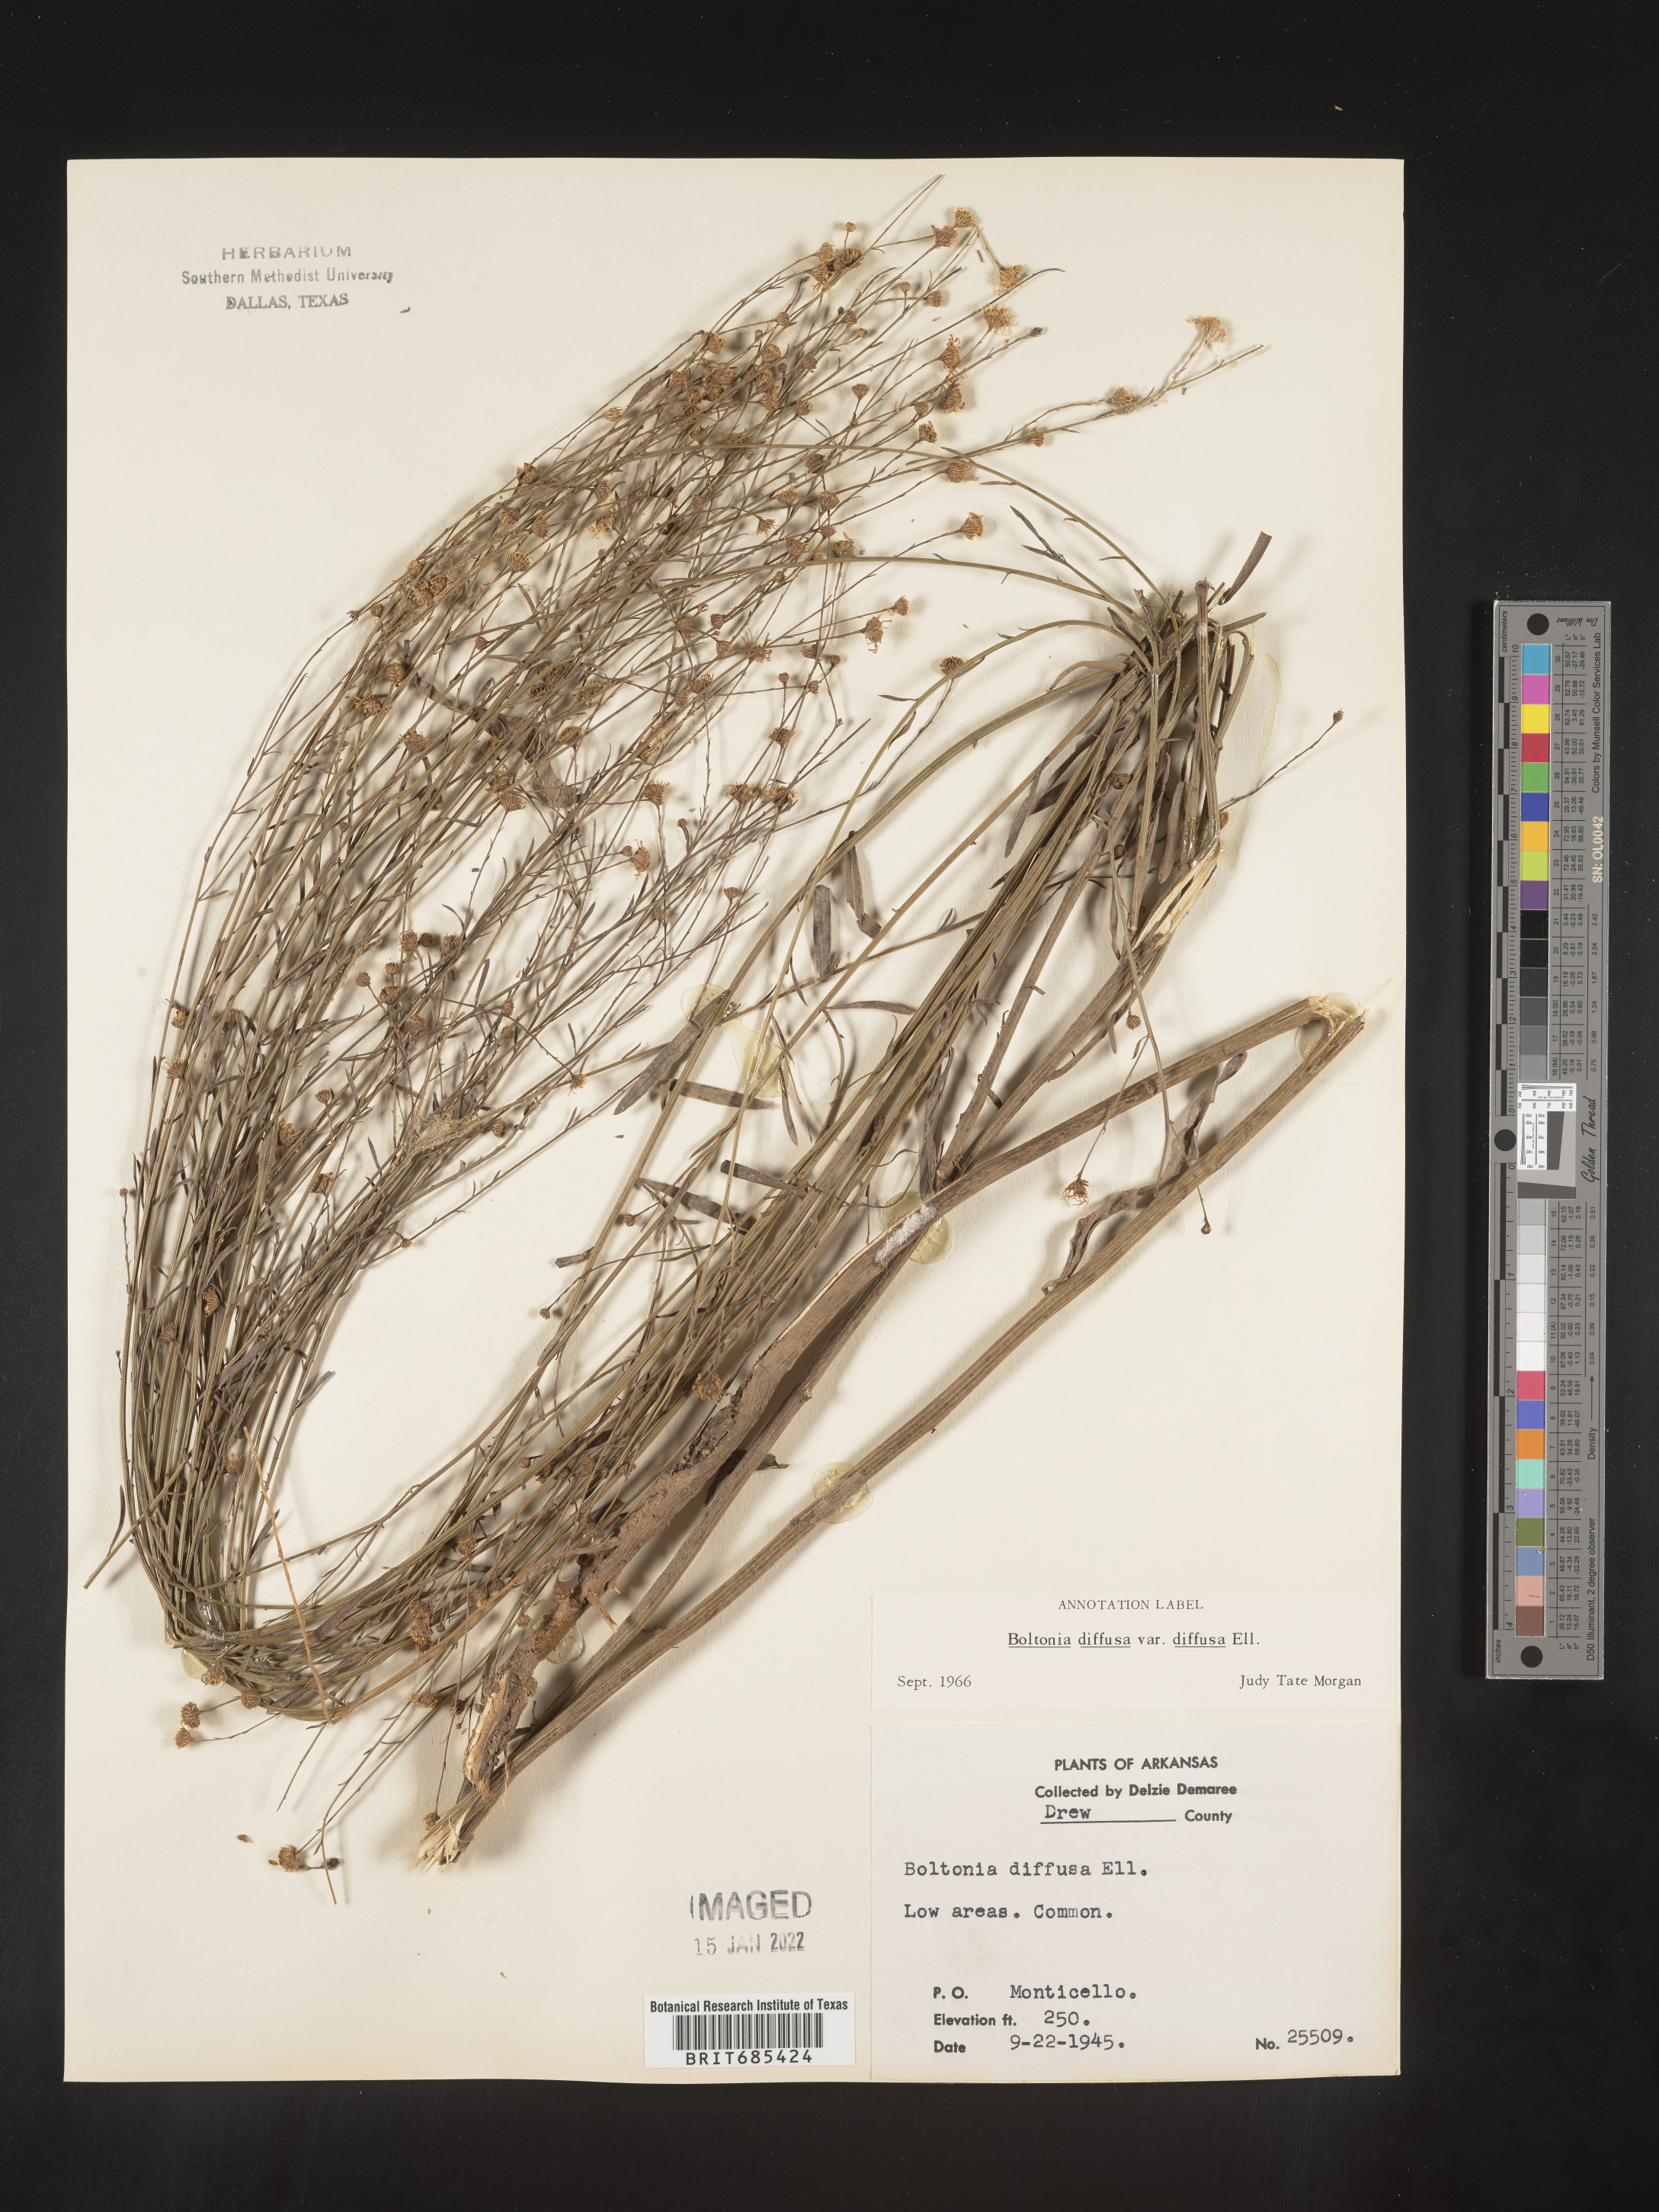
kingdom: Plantae
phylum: Tracheophyta
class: Magnoliopsida
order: Asterales
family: Asteraceae
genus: Boltonia
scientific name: Boltonia diffusa
